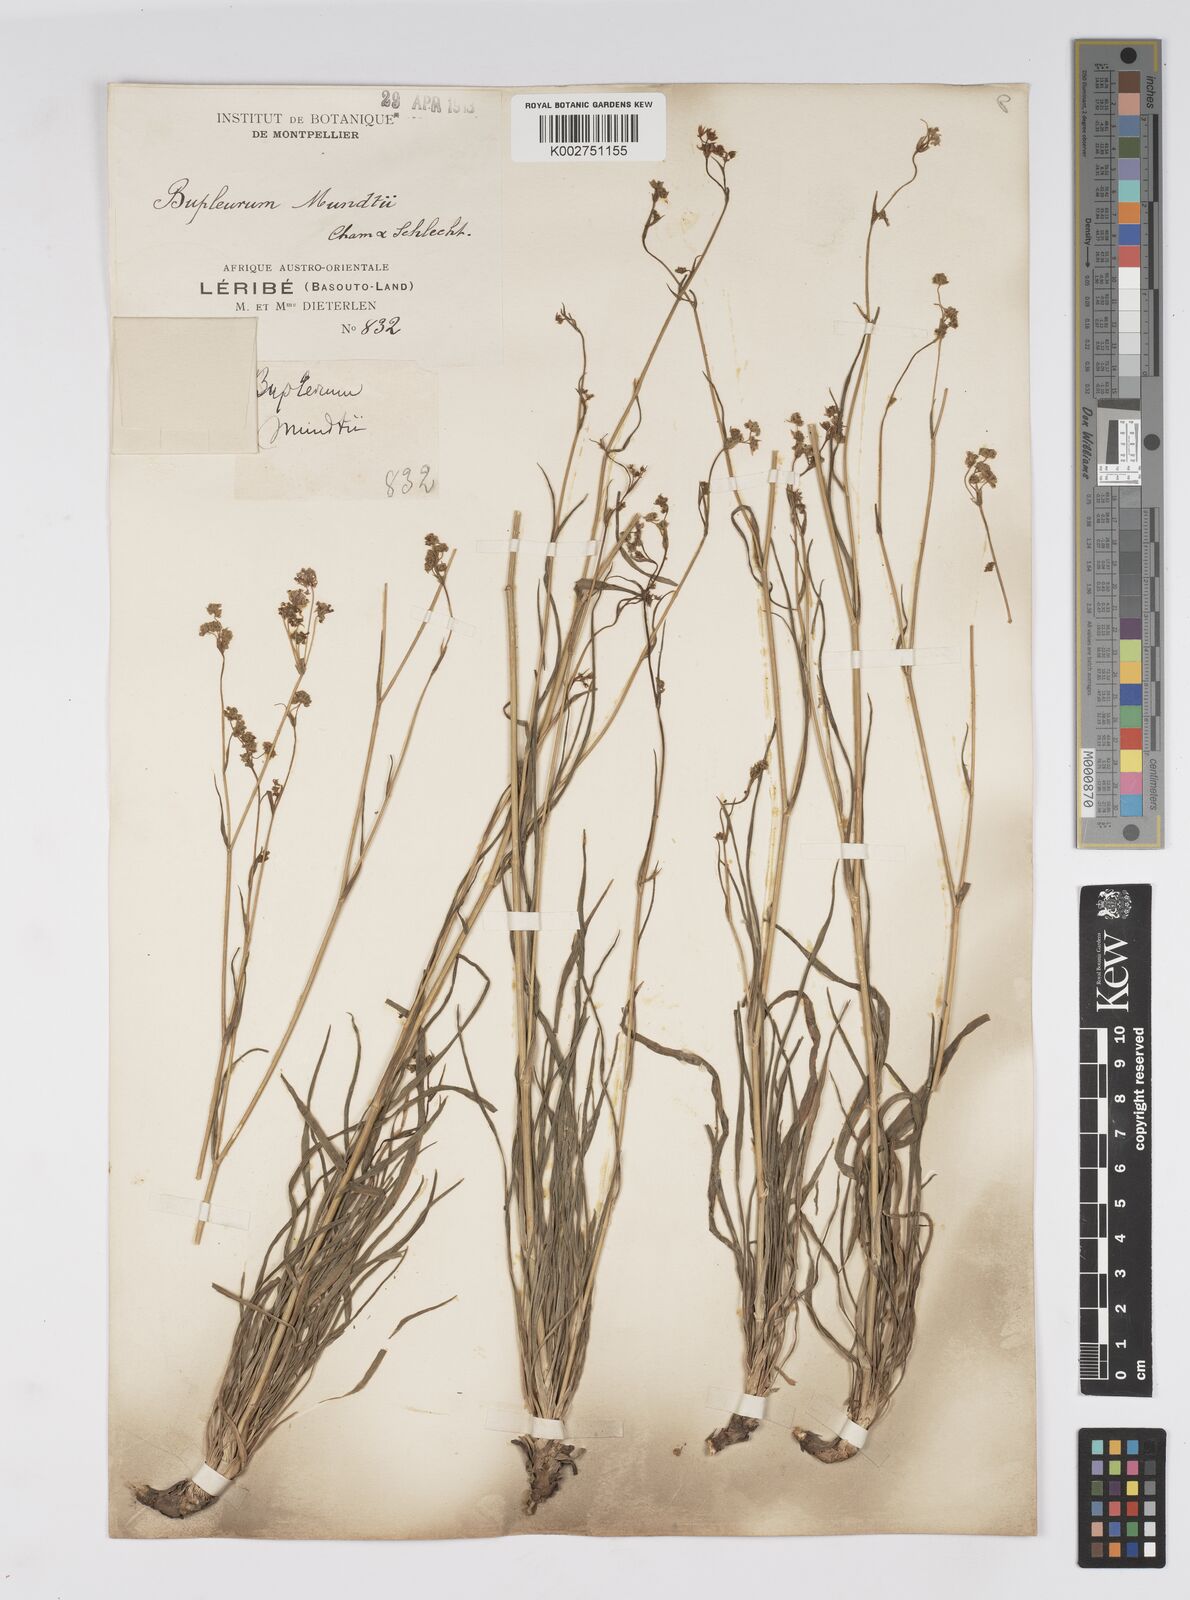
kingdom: Plantae
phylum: Tracheophyta
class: Magnoliopsida
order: Apiales
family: Apiaceae
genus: Bupleurum
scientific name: Bupleurum mundii
